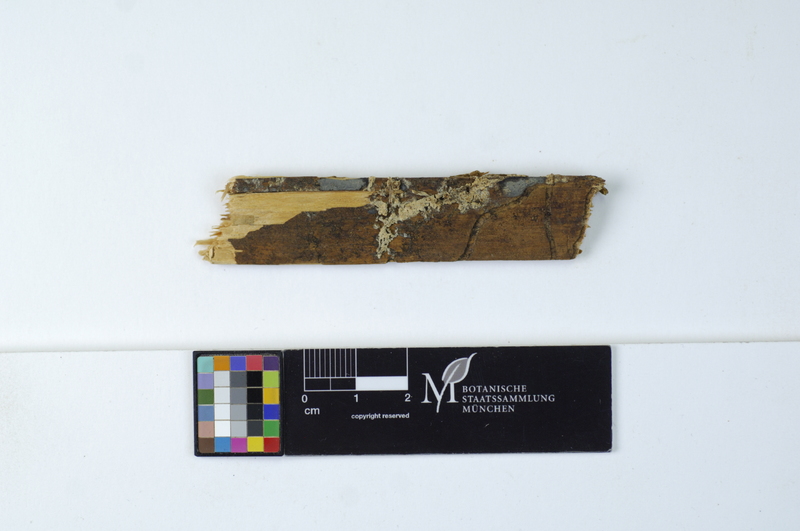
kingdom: Plantae
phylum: Tracheophyta
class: Pinopsida
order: Pinales
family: Pinaceae
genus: Picea
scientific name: Picea abies
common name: Norway spruce
